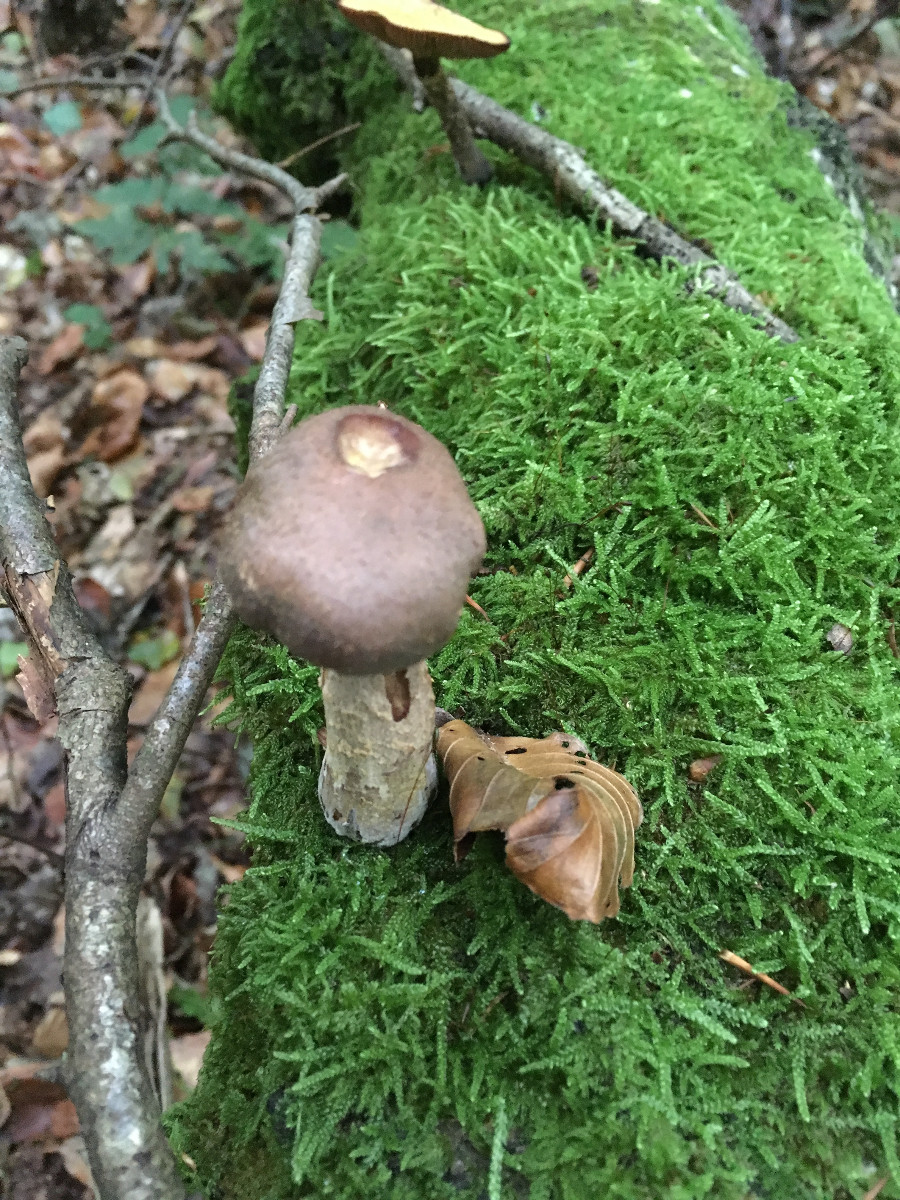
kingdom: Fungi
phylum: Basidiomycota
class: Agaricomycetes
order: Agaricales
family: Physalacriaceae
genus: Armillaria
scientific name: Armillaria
